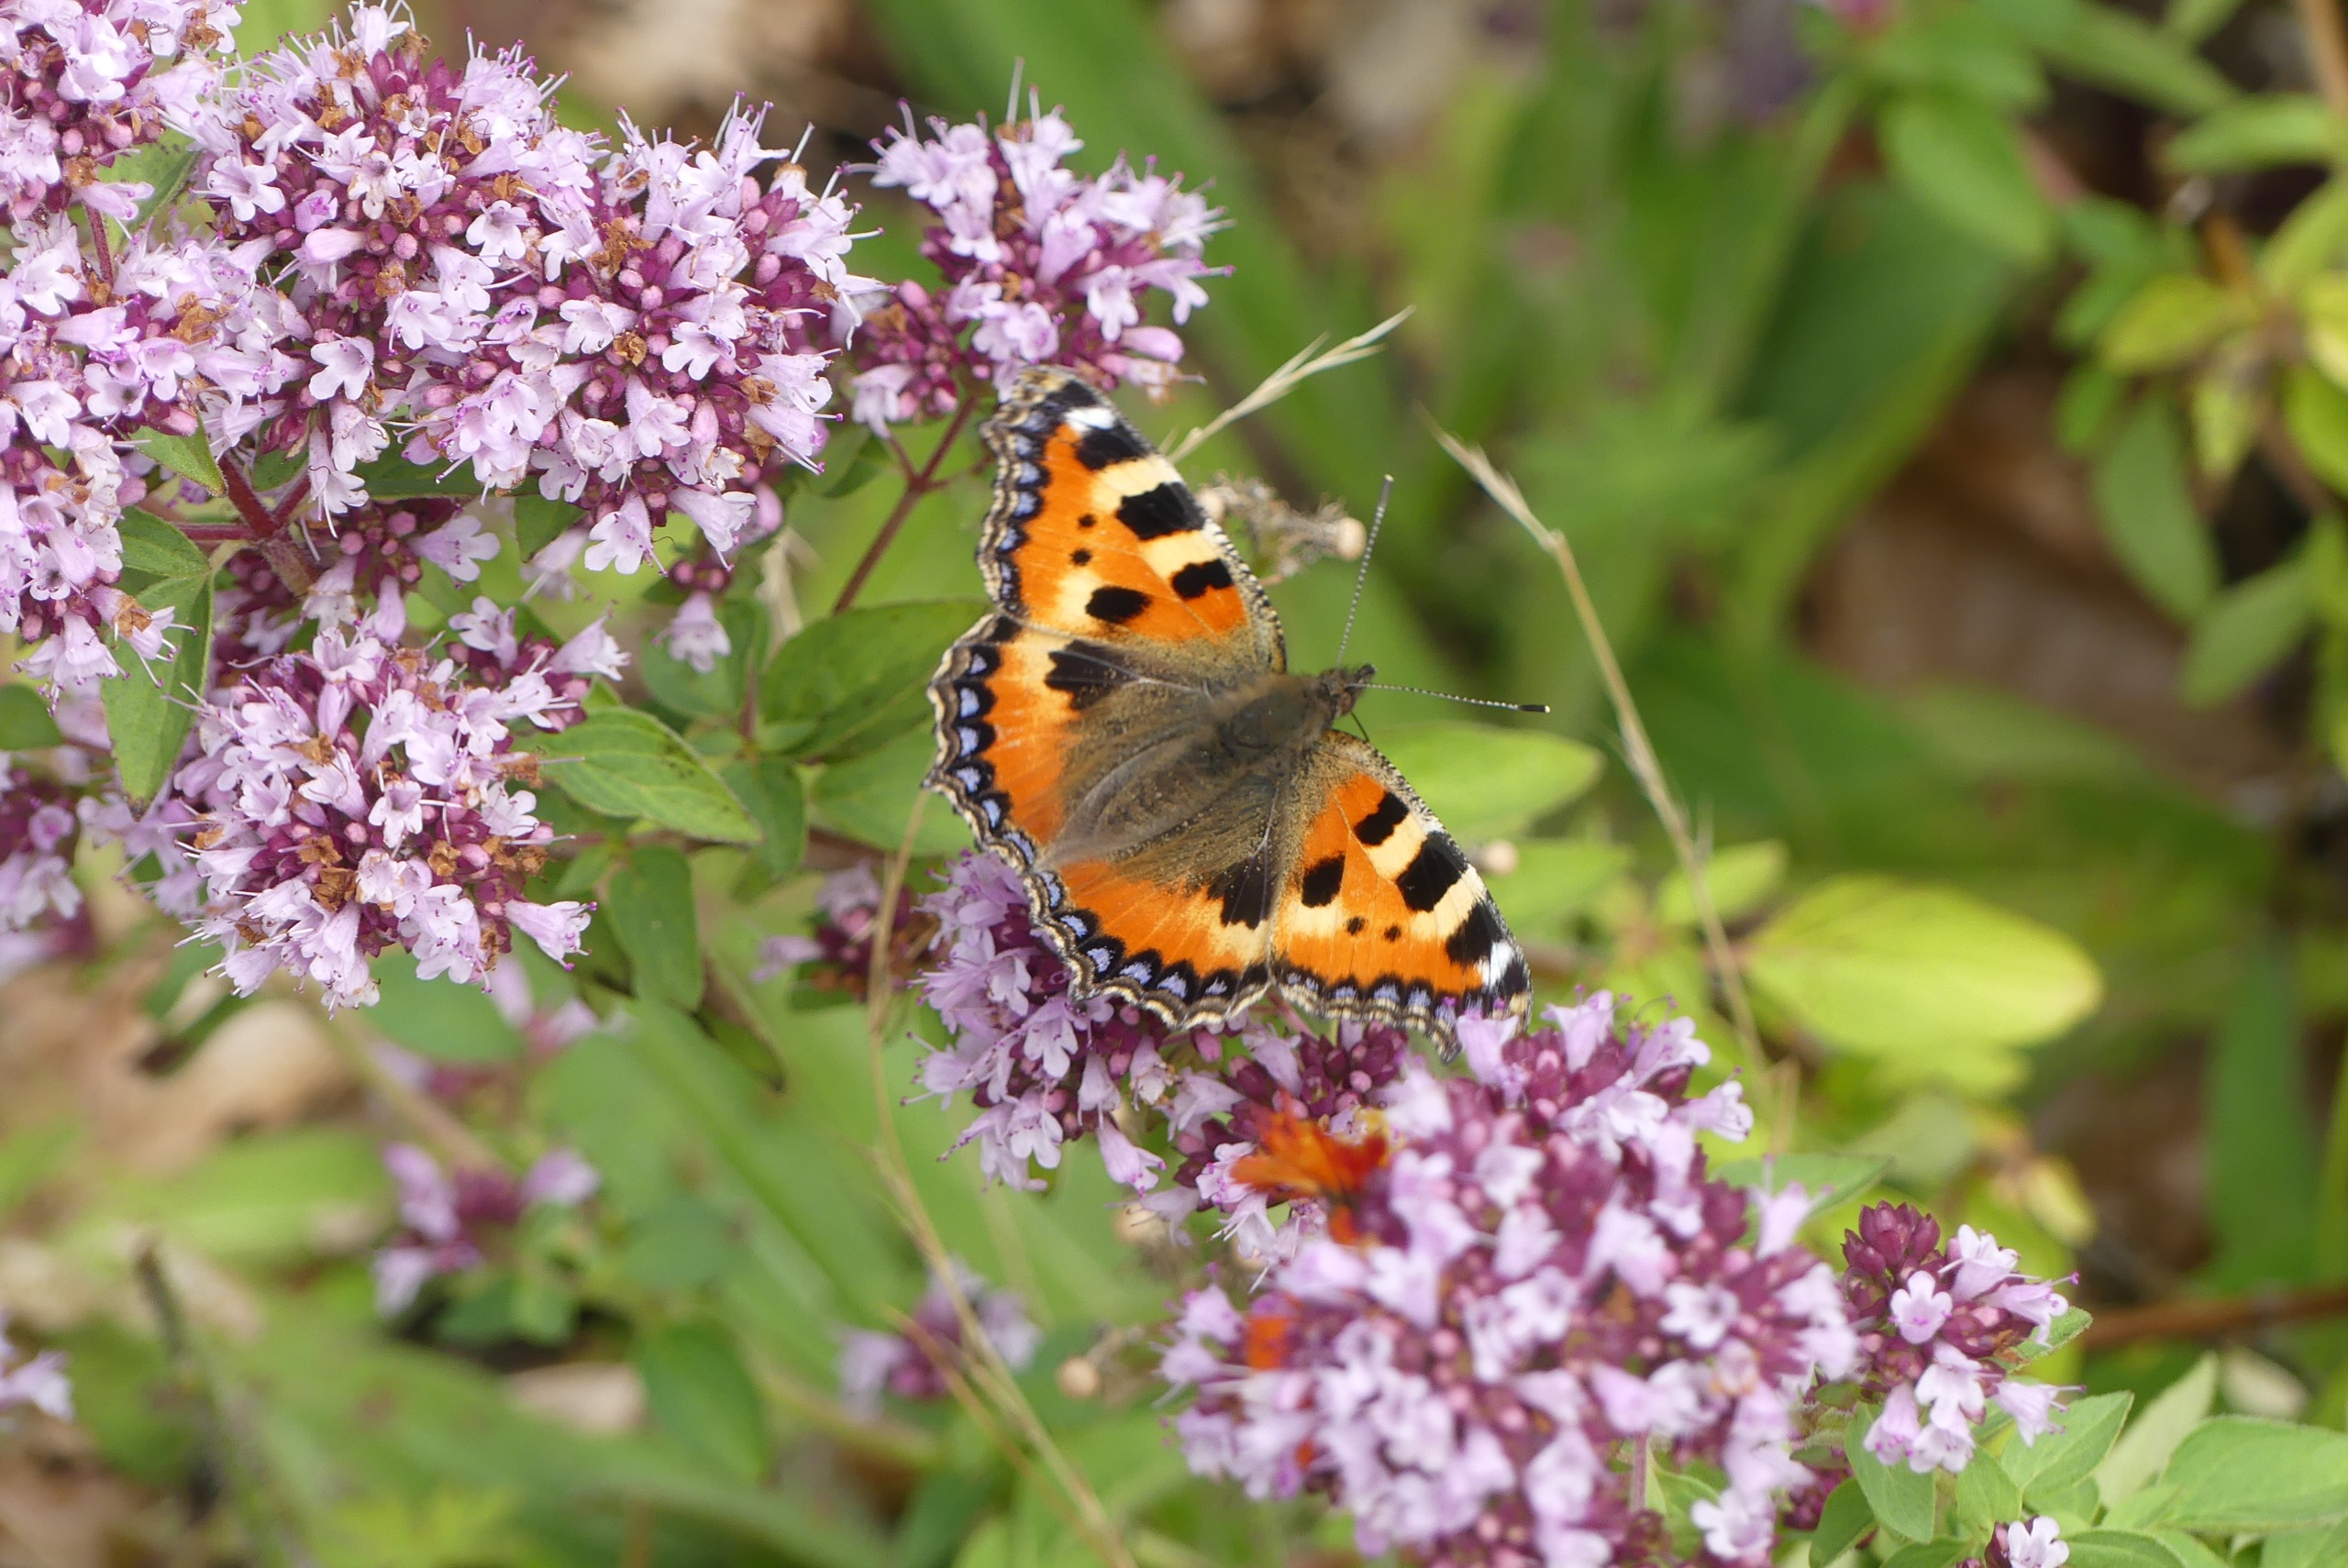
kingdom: Animalia
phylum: Arthropoda
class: Insecta
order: Lepidoptera
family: Nymphalidae
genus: Aglais
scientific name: Aglais urticae
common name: Nældens takvinge
